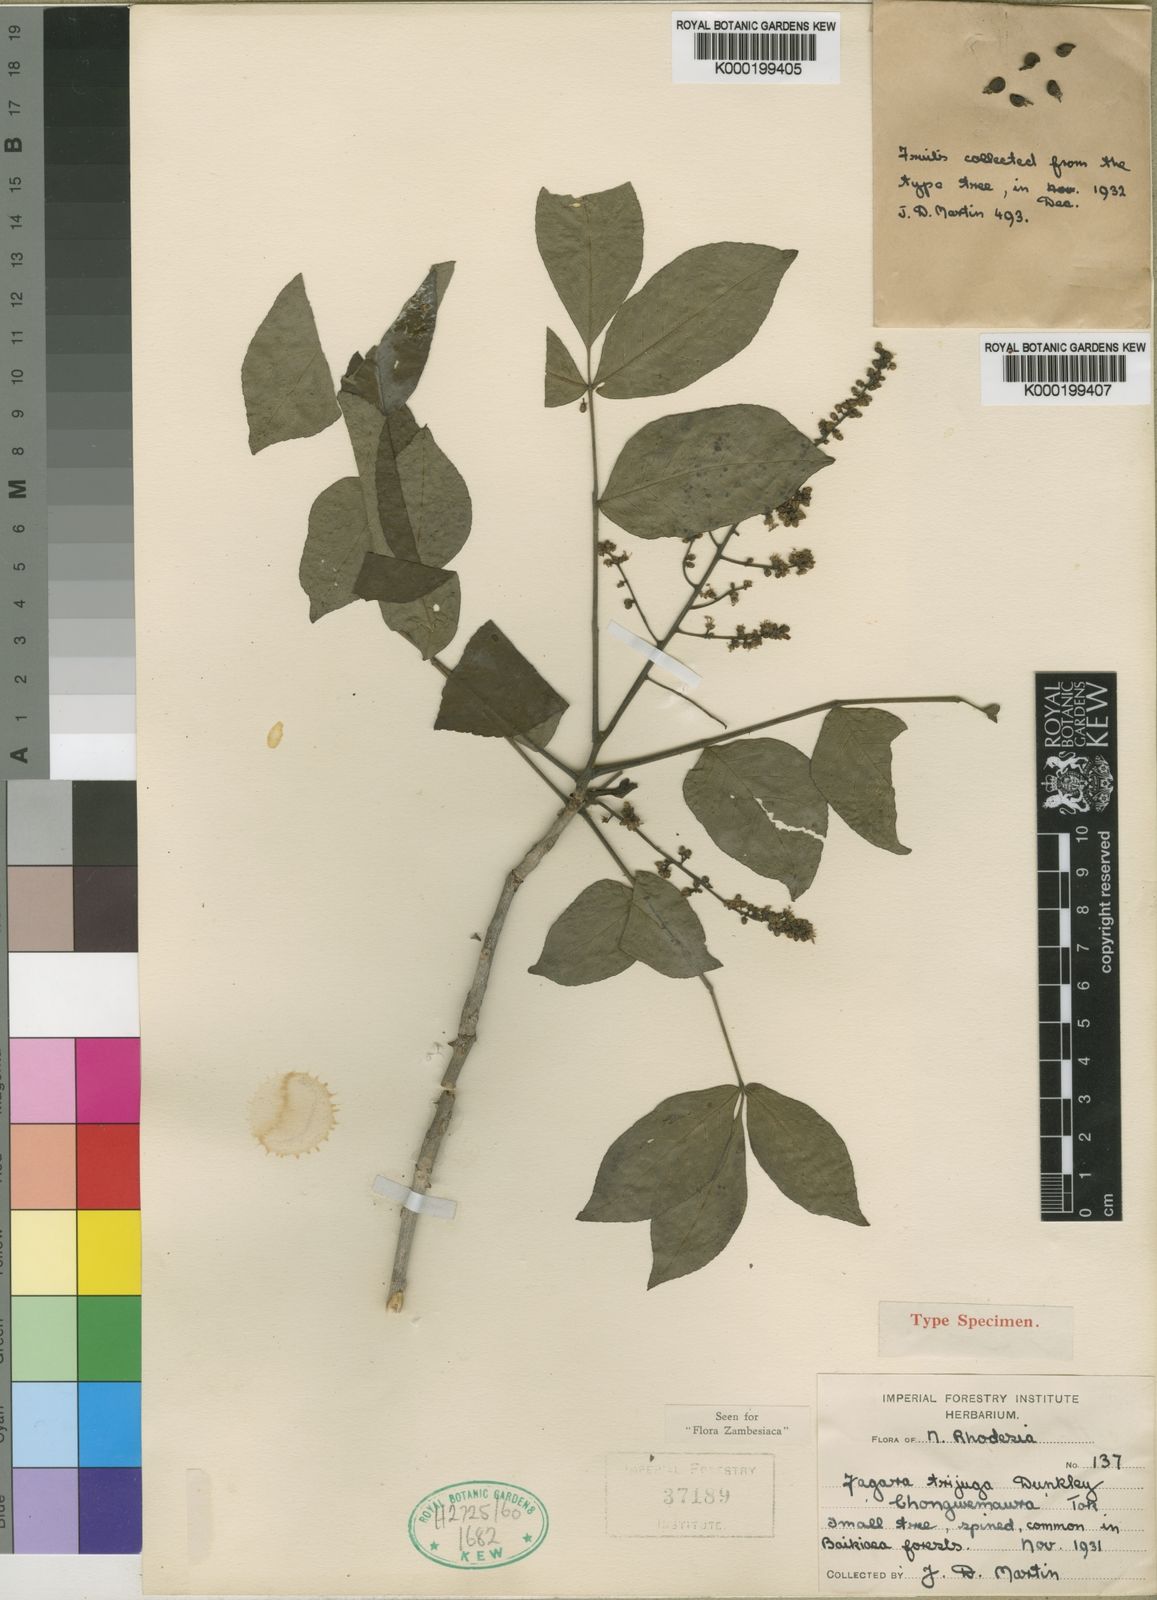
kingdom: Plantae
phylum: Tracheophyta
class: Magnoliopsida
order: Sapindales
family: Rutaceae
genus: Zanthoxylum
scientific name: Zanthoxylum trijugum
